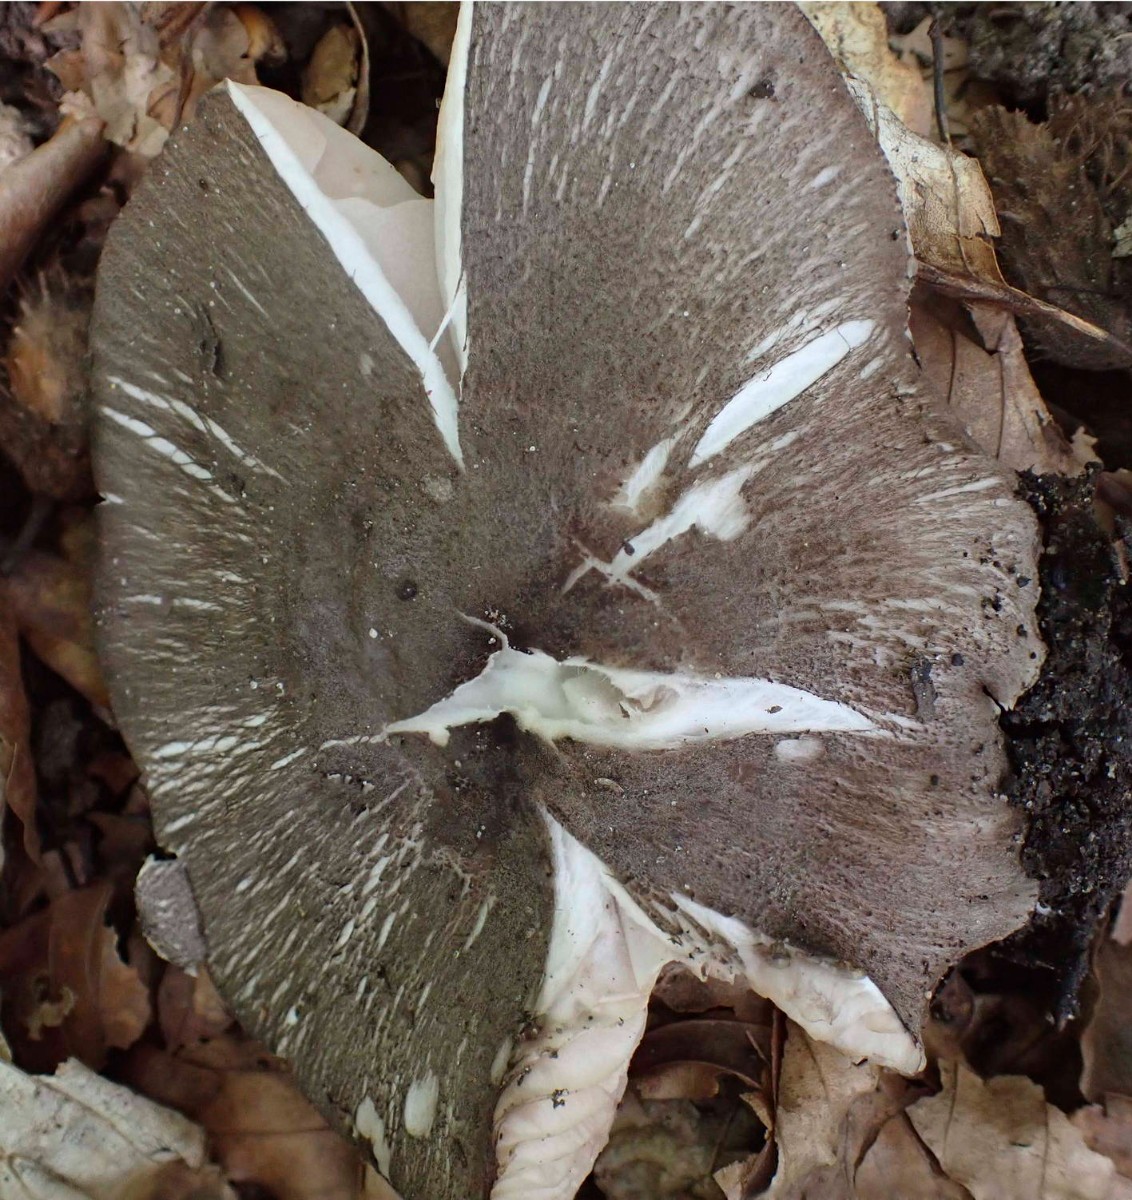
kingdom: Fungi
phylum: Basidiomycota
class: Agaricomycetes
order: Agaricales
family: Pluteaceae
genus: Pluteus
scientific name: Pluteus
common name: gråfibret skærmhat
